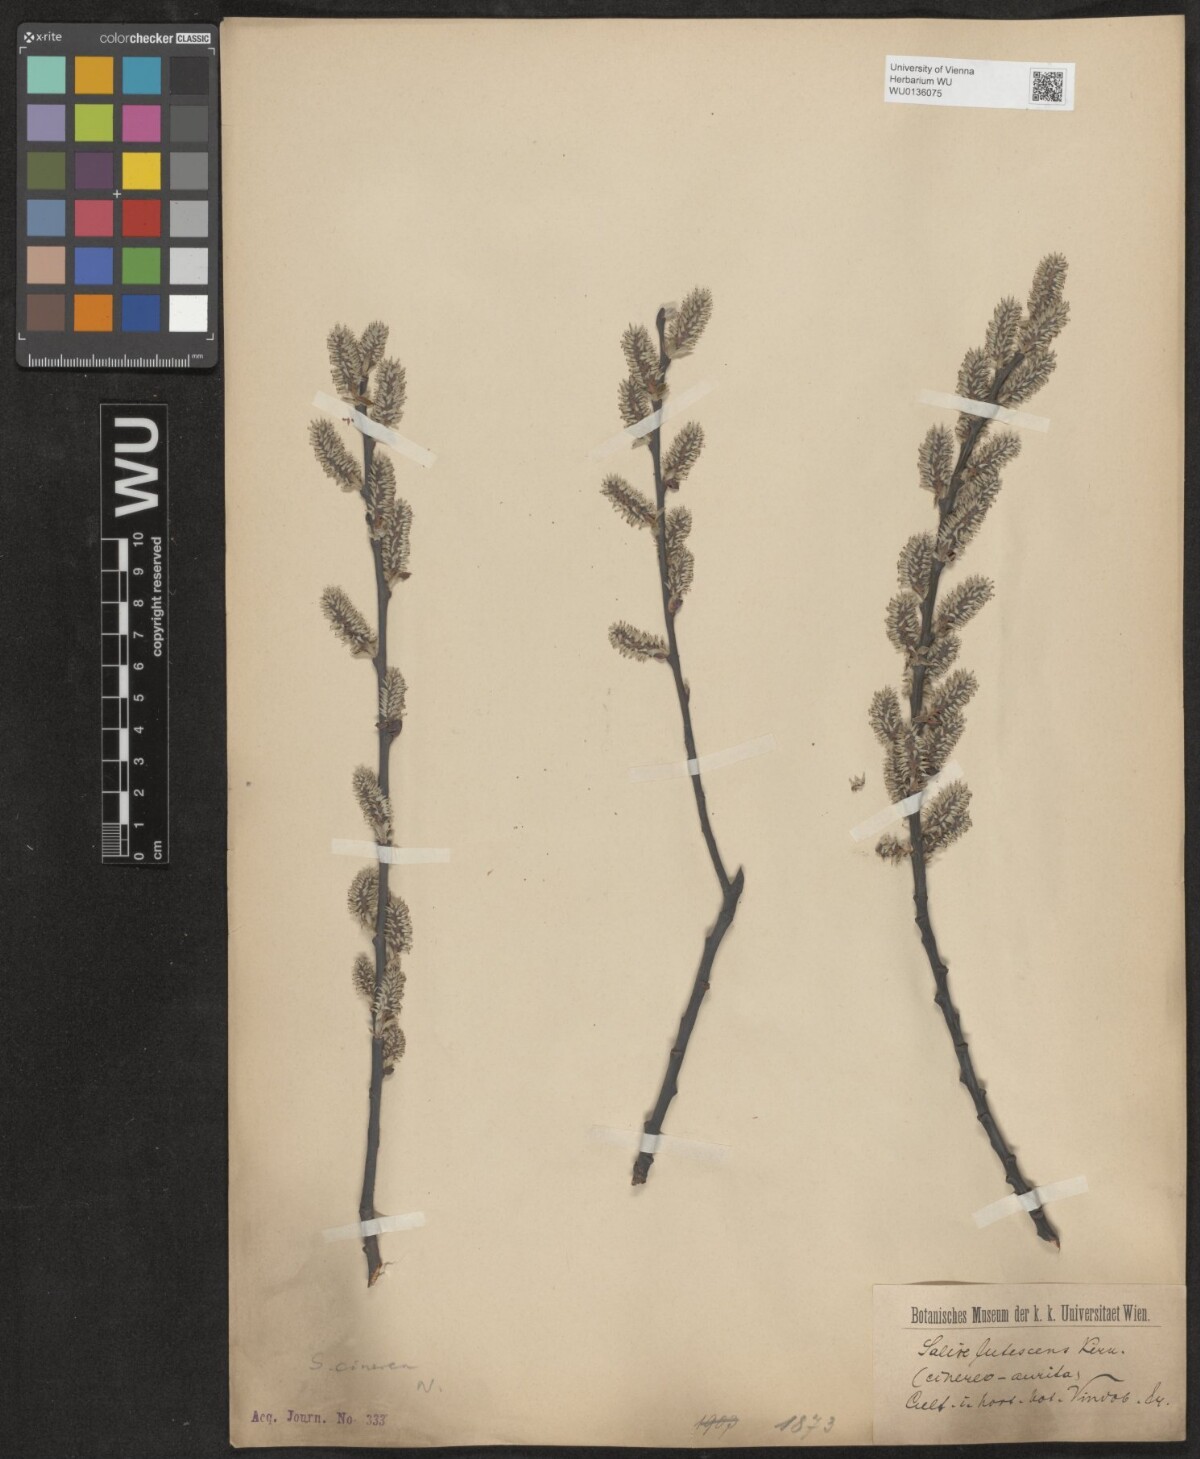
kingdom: Plantae
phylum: Tracheophyta
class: Magnoliopsida
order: Malpighiales
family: Salicaceae
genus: Salix
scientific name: Salix cinerea
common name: Common sallow
